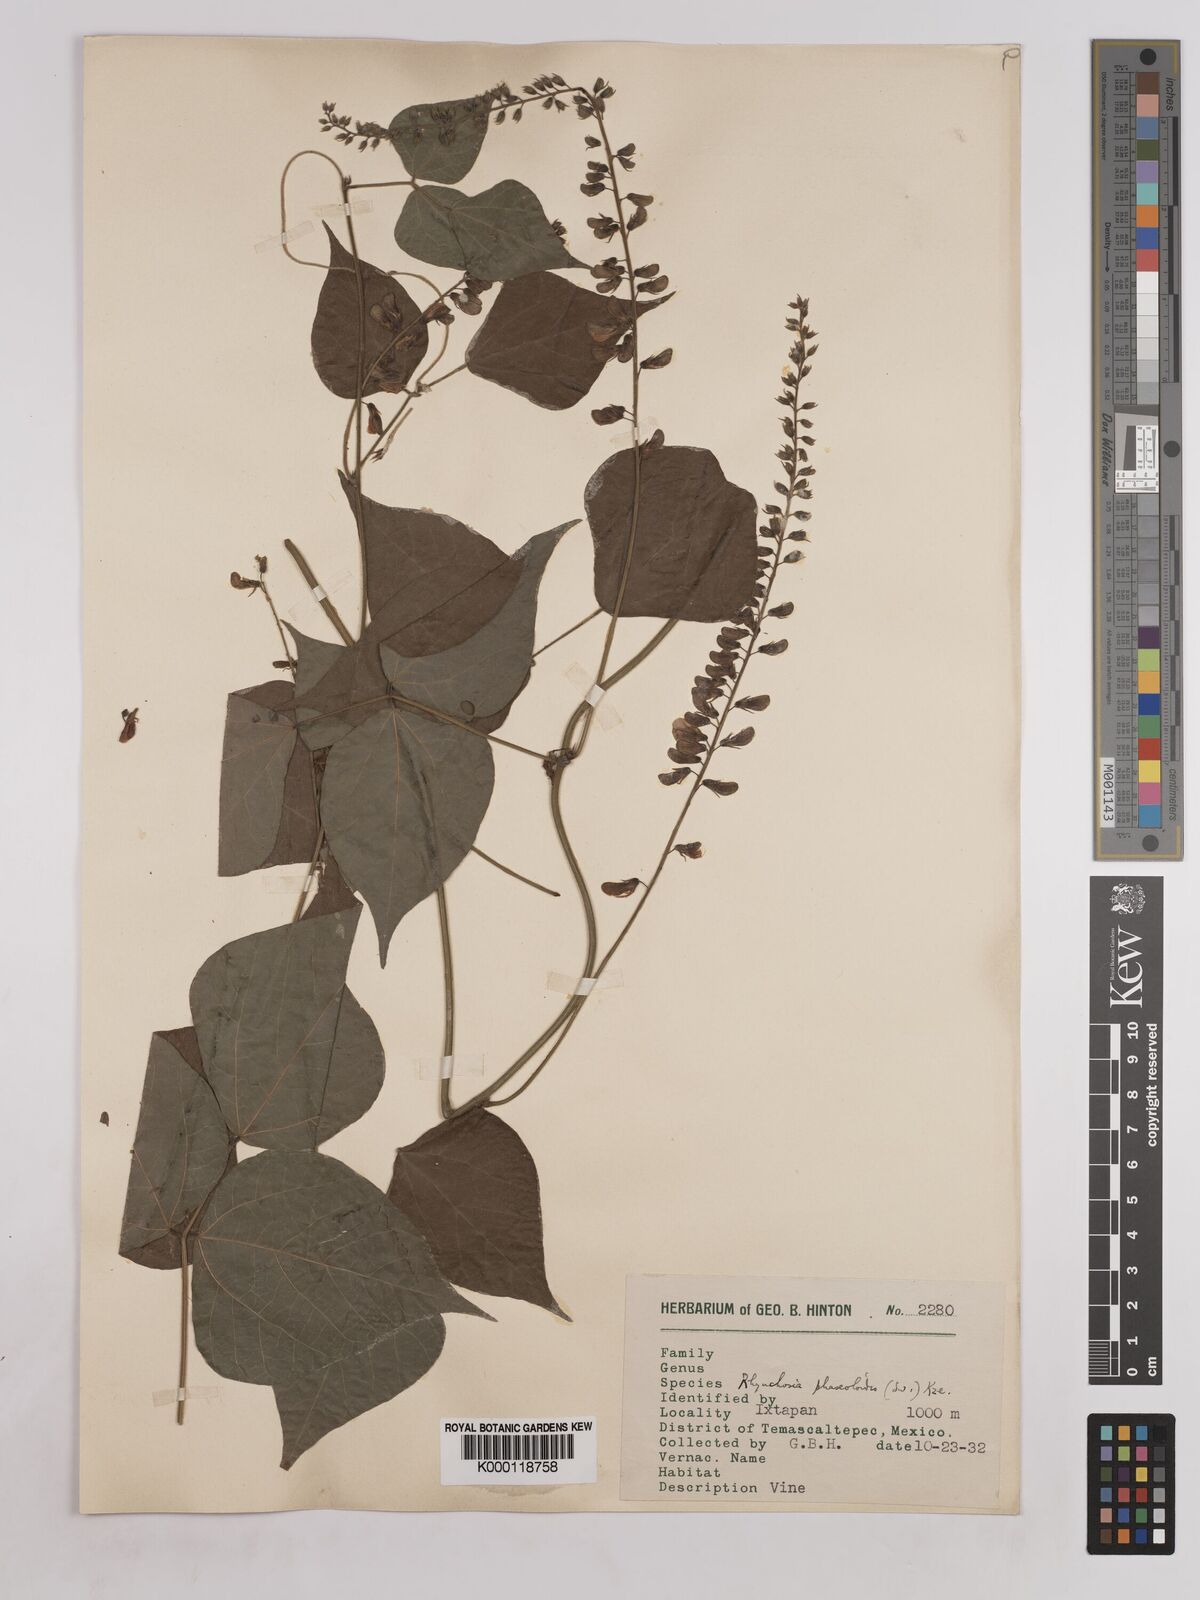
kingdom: Plantae
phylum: Tracheophyta
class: Magnoliopsida
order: Fabales
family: Fabaceae
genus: Rhynchosia
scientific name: Rhynchosia
